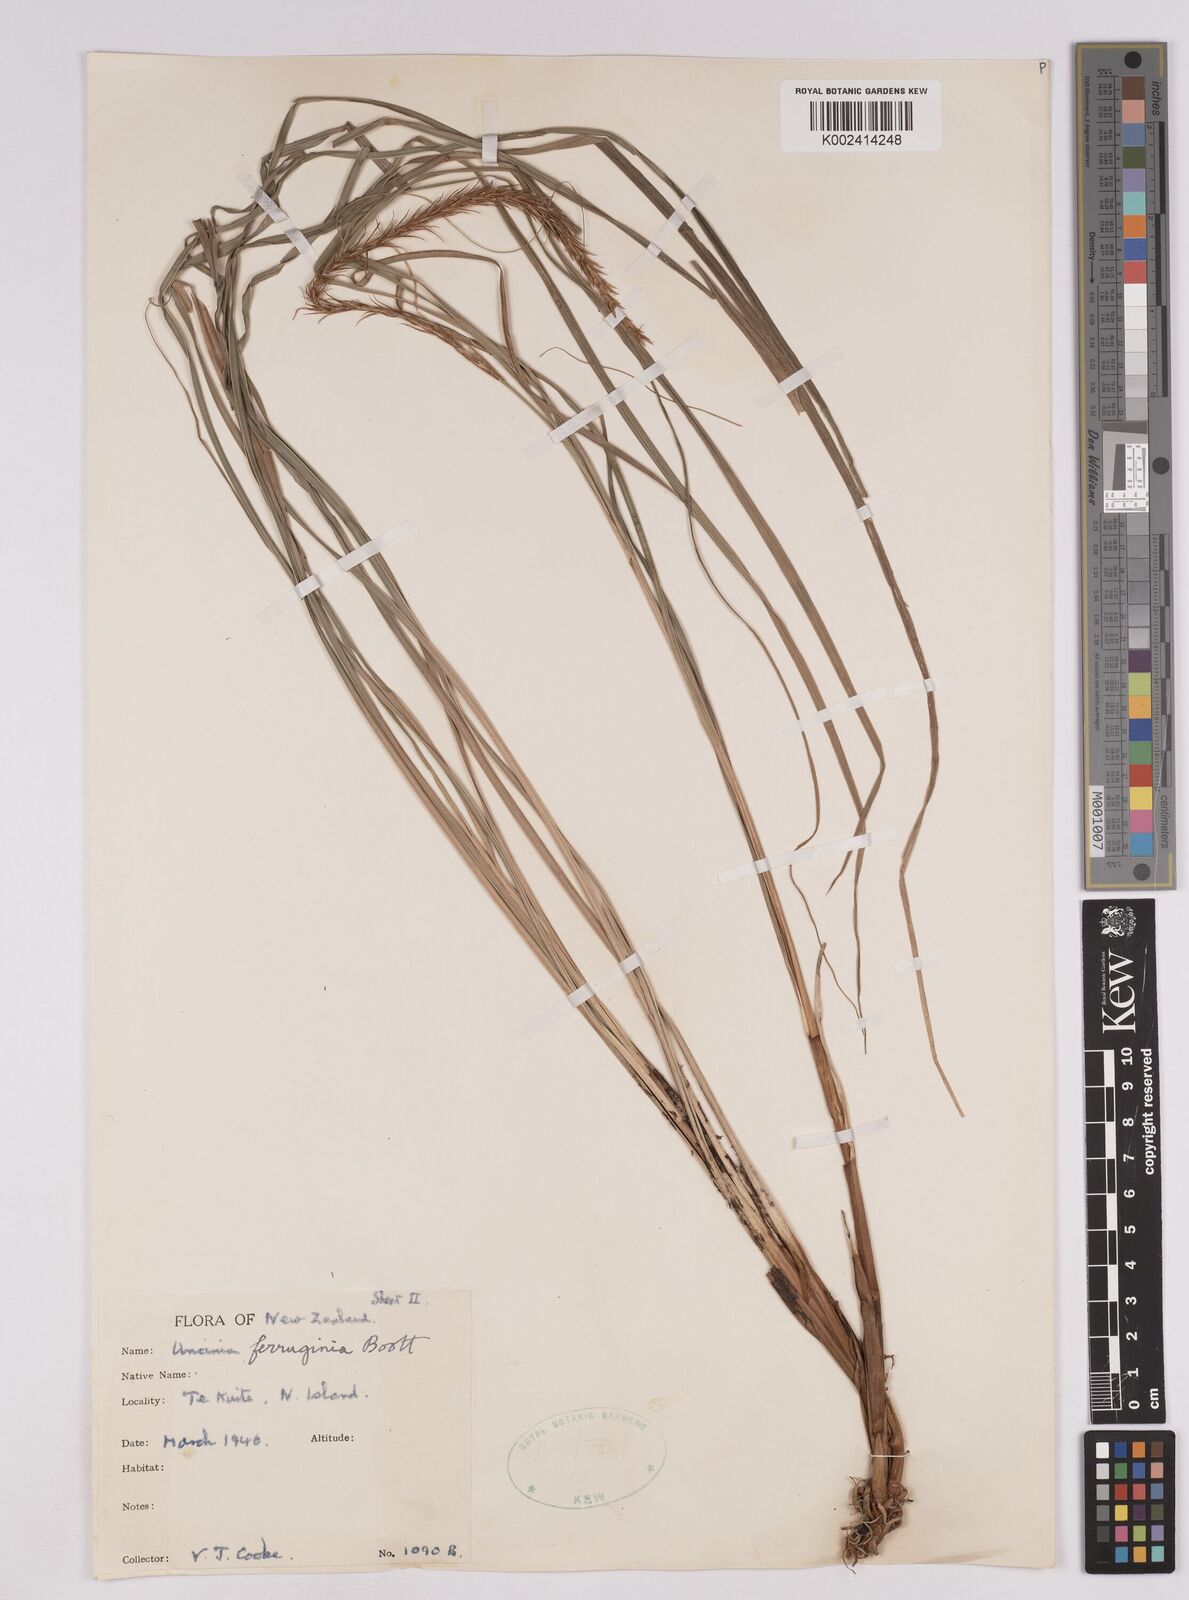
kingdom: Plantae
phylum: Tracheophyta
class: Liliopsida
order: Poales
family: Cyperaceae
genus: Carex
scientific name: Carex uncinata
